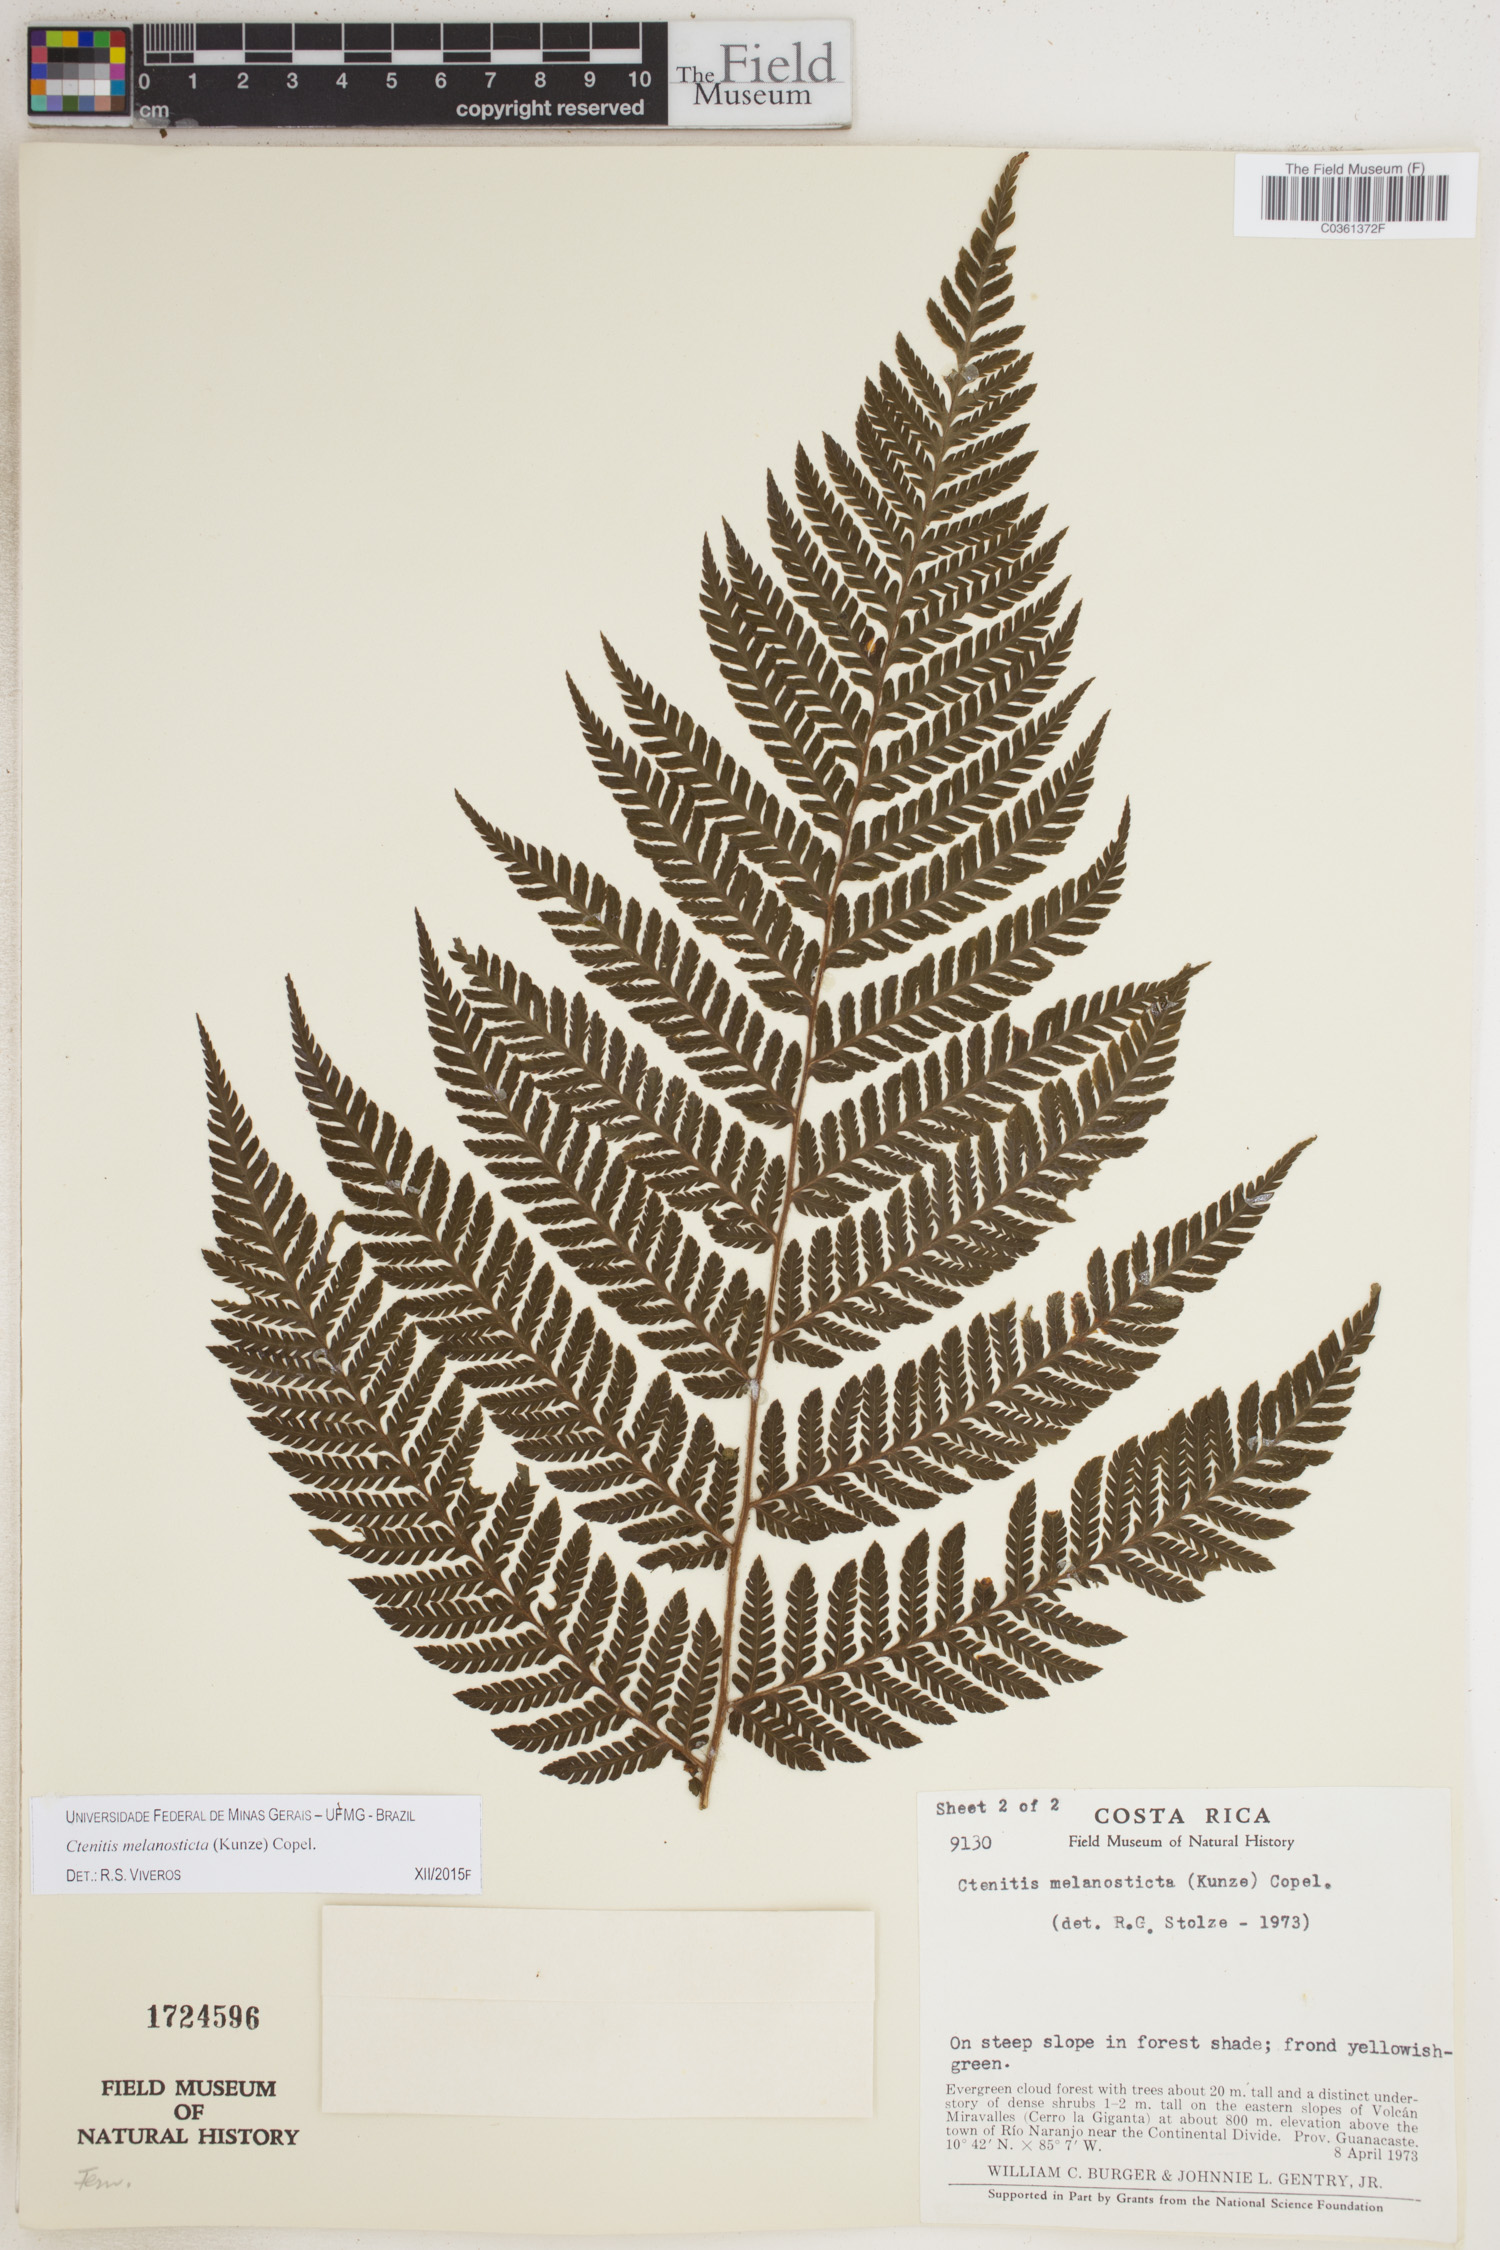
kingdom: Plantae
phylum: Tracheophyta
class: Polypodiopsida
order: Polypodiales
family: Dryopteridaceae
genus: Ctenitis
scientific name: Ctenitis melanosticta
